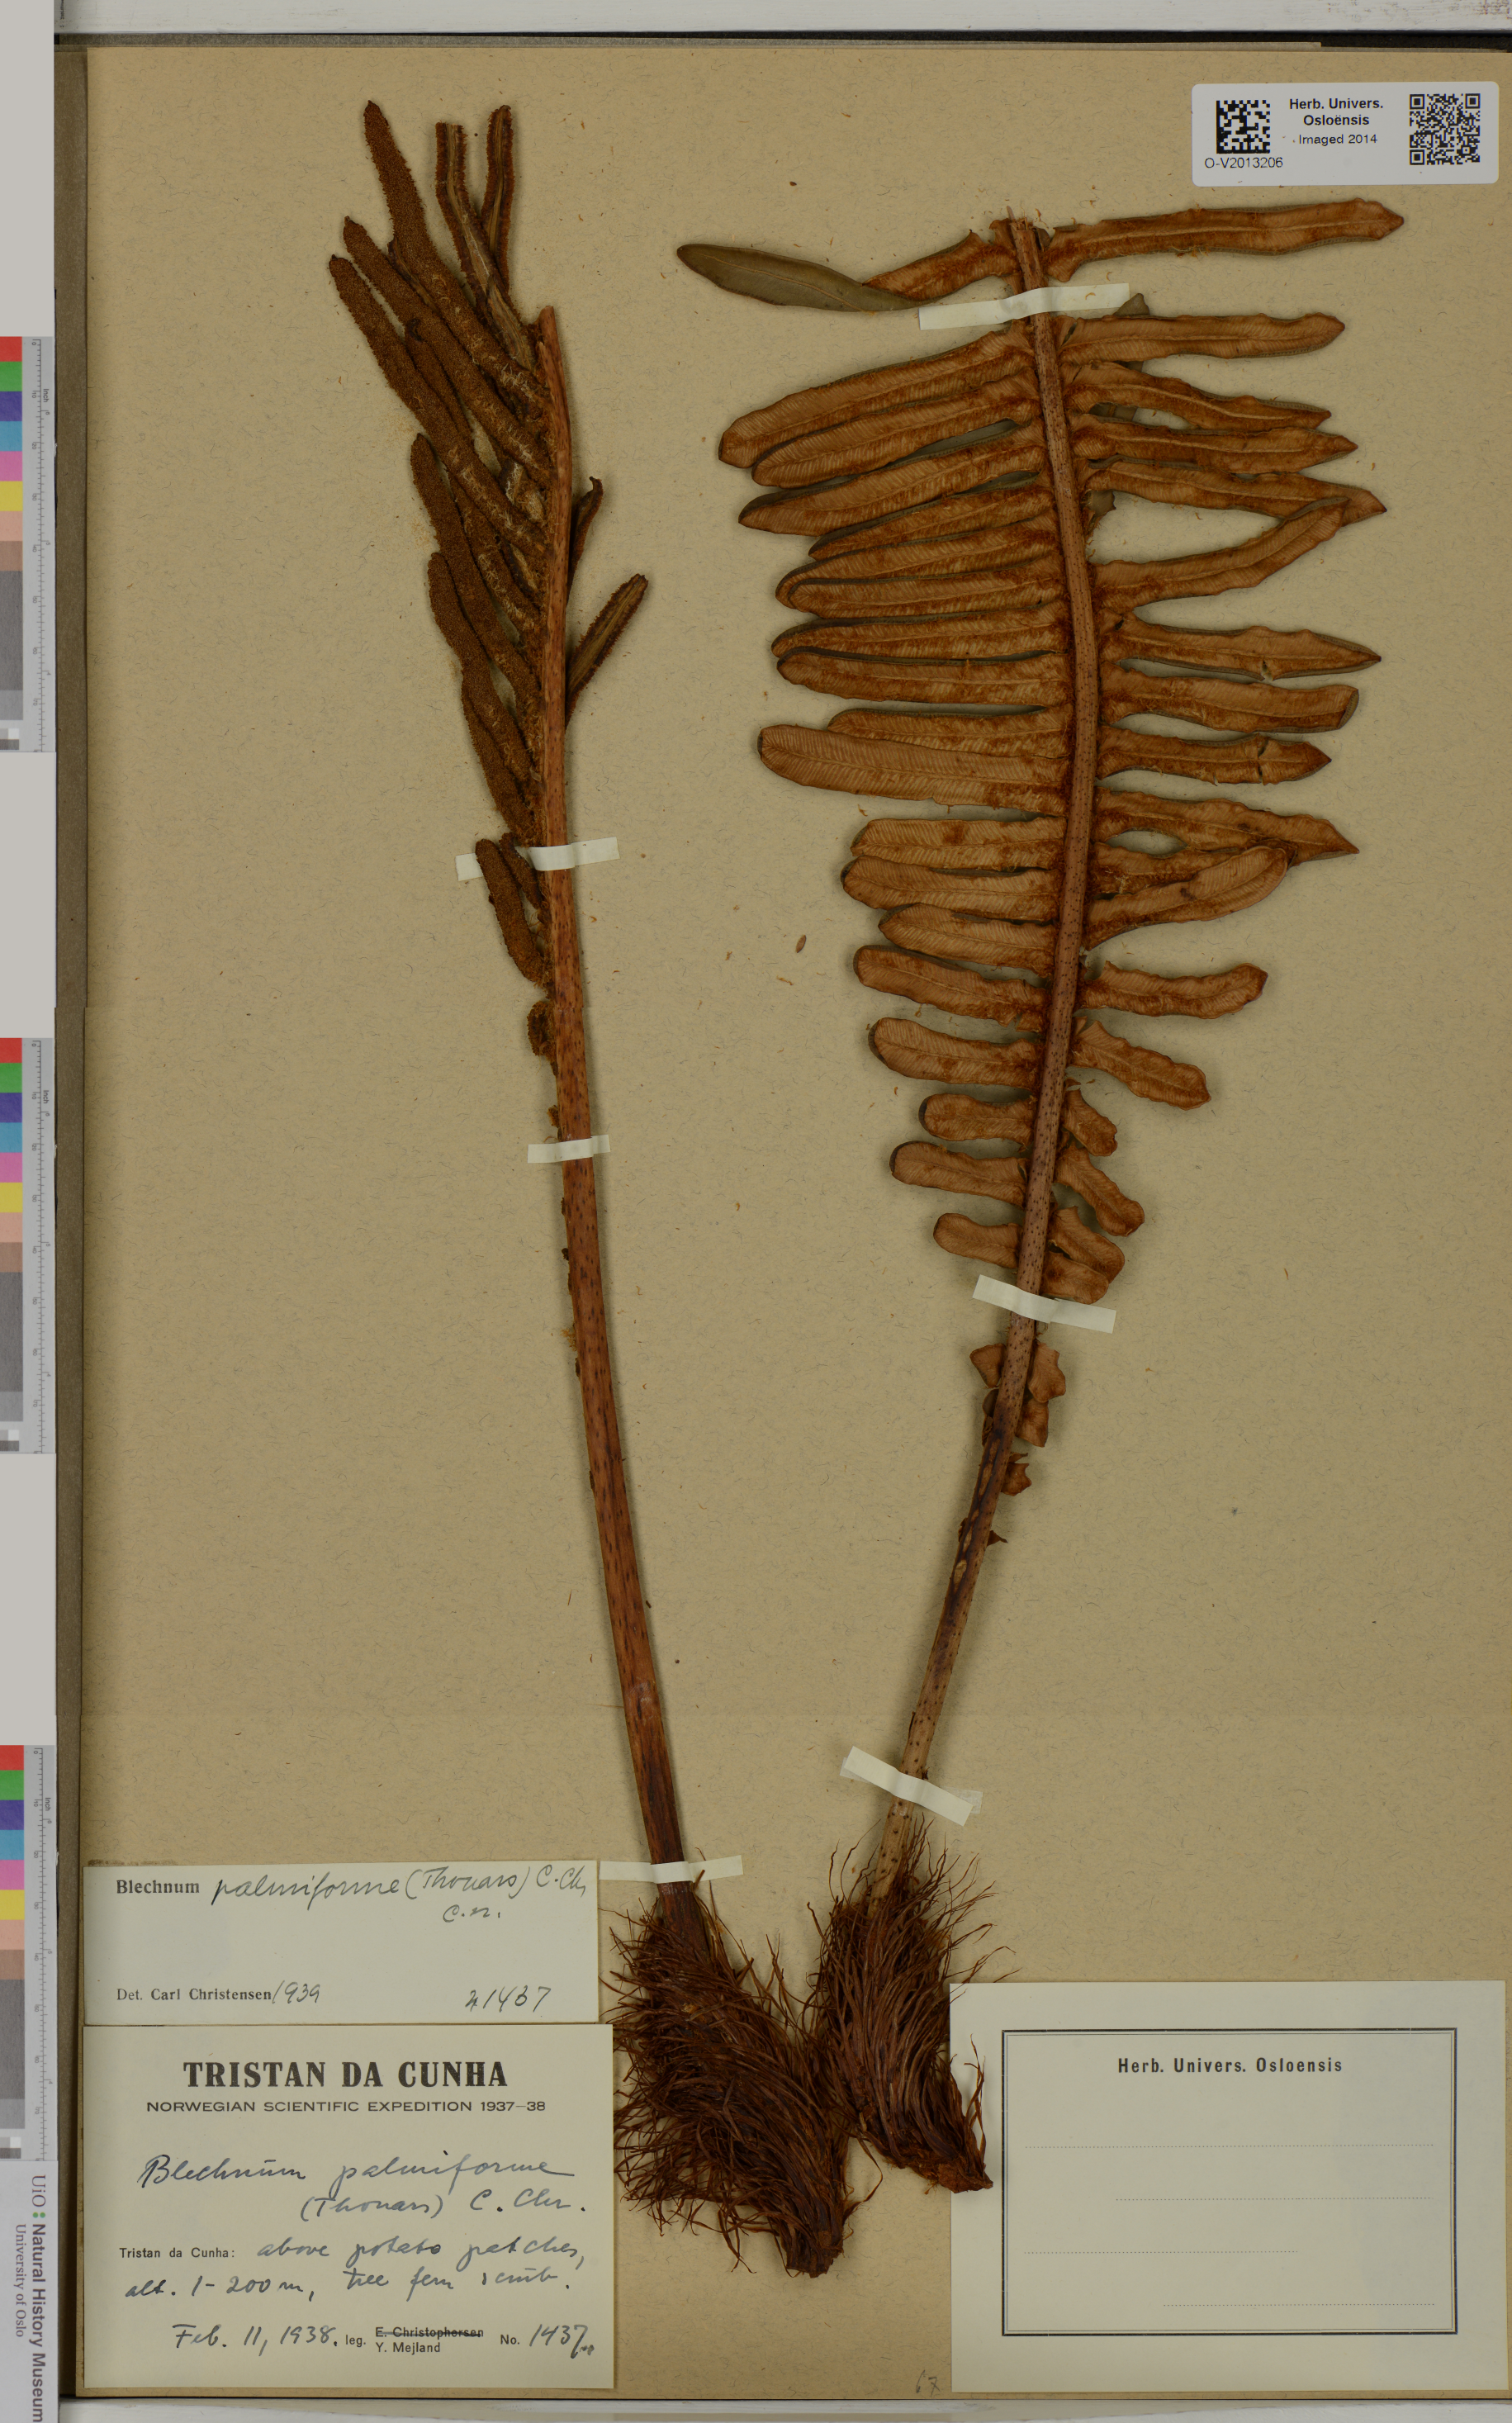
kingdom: Plantae
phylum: Tracheophyta
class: Polypodiopsida
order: Polypodiales
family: Blechnaceae
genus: Lomariocycas
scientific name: Lomariocycas palmiformis
